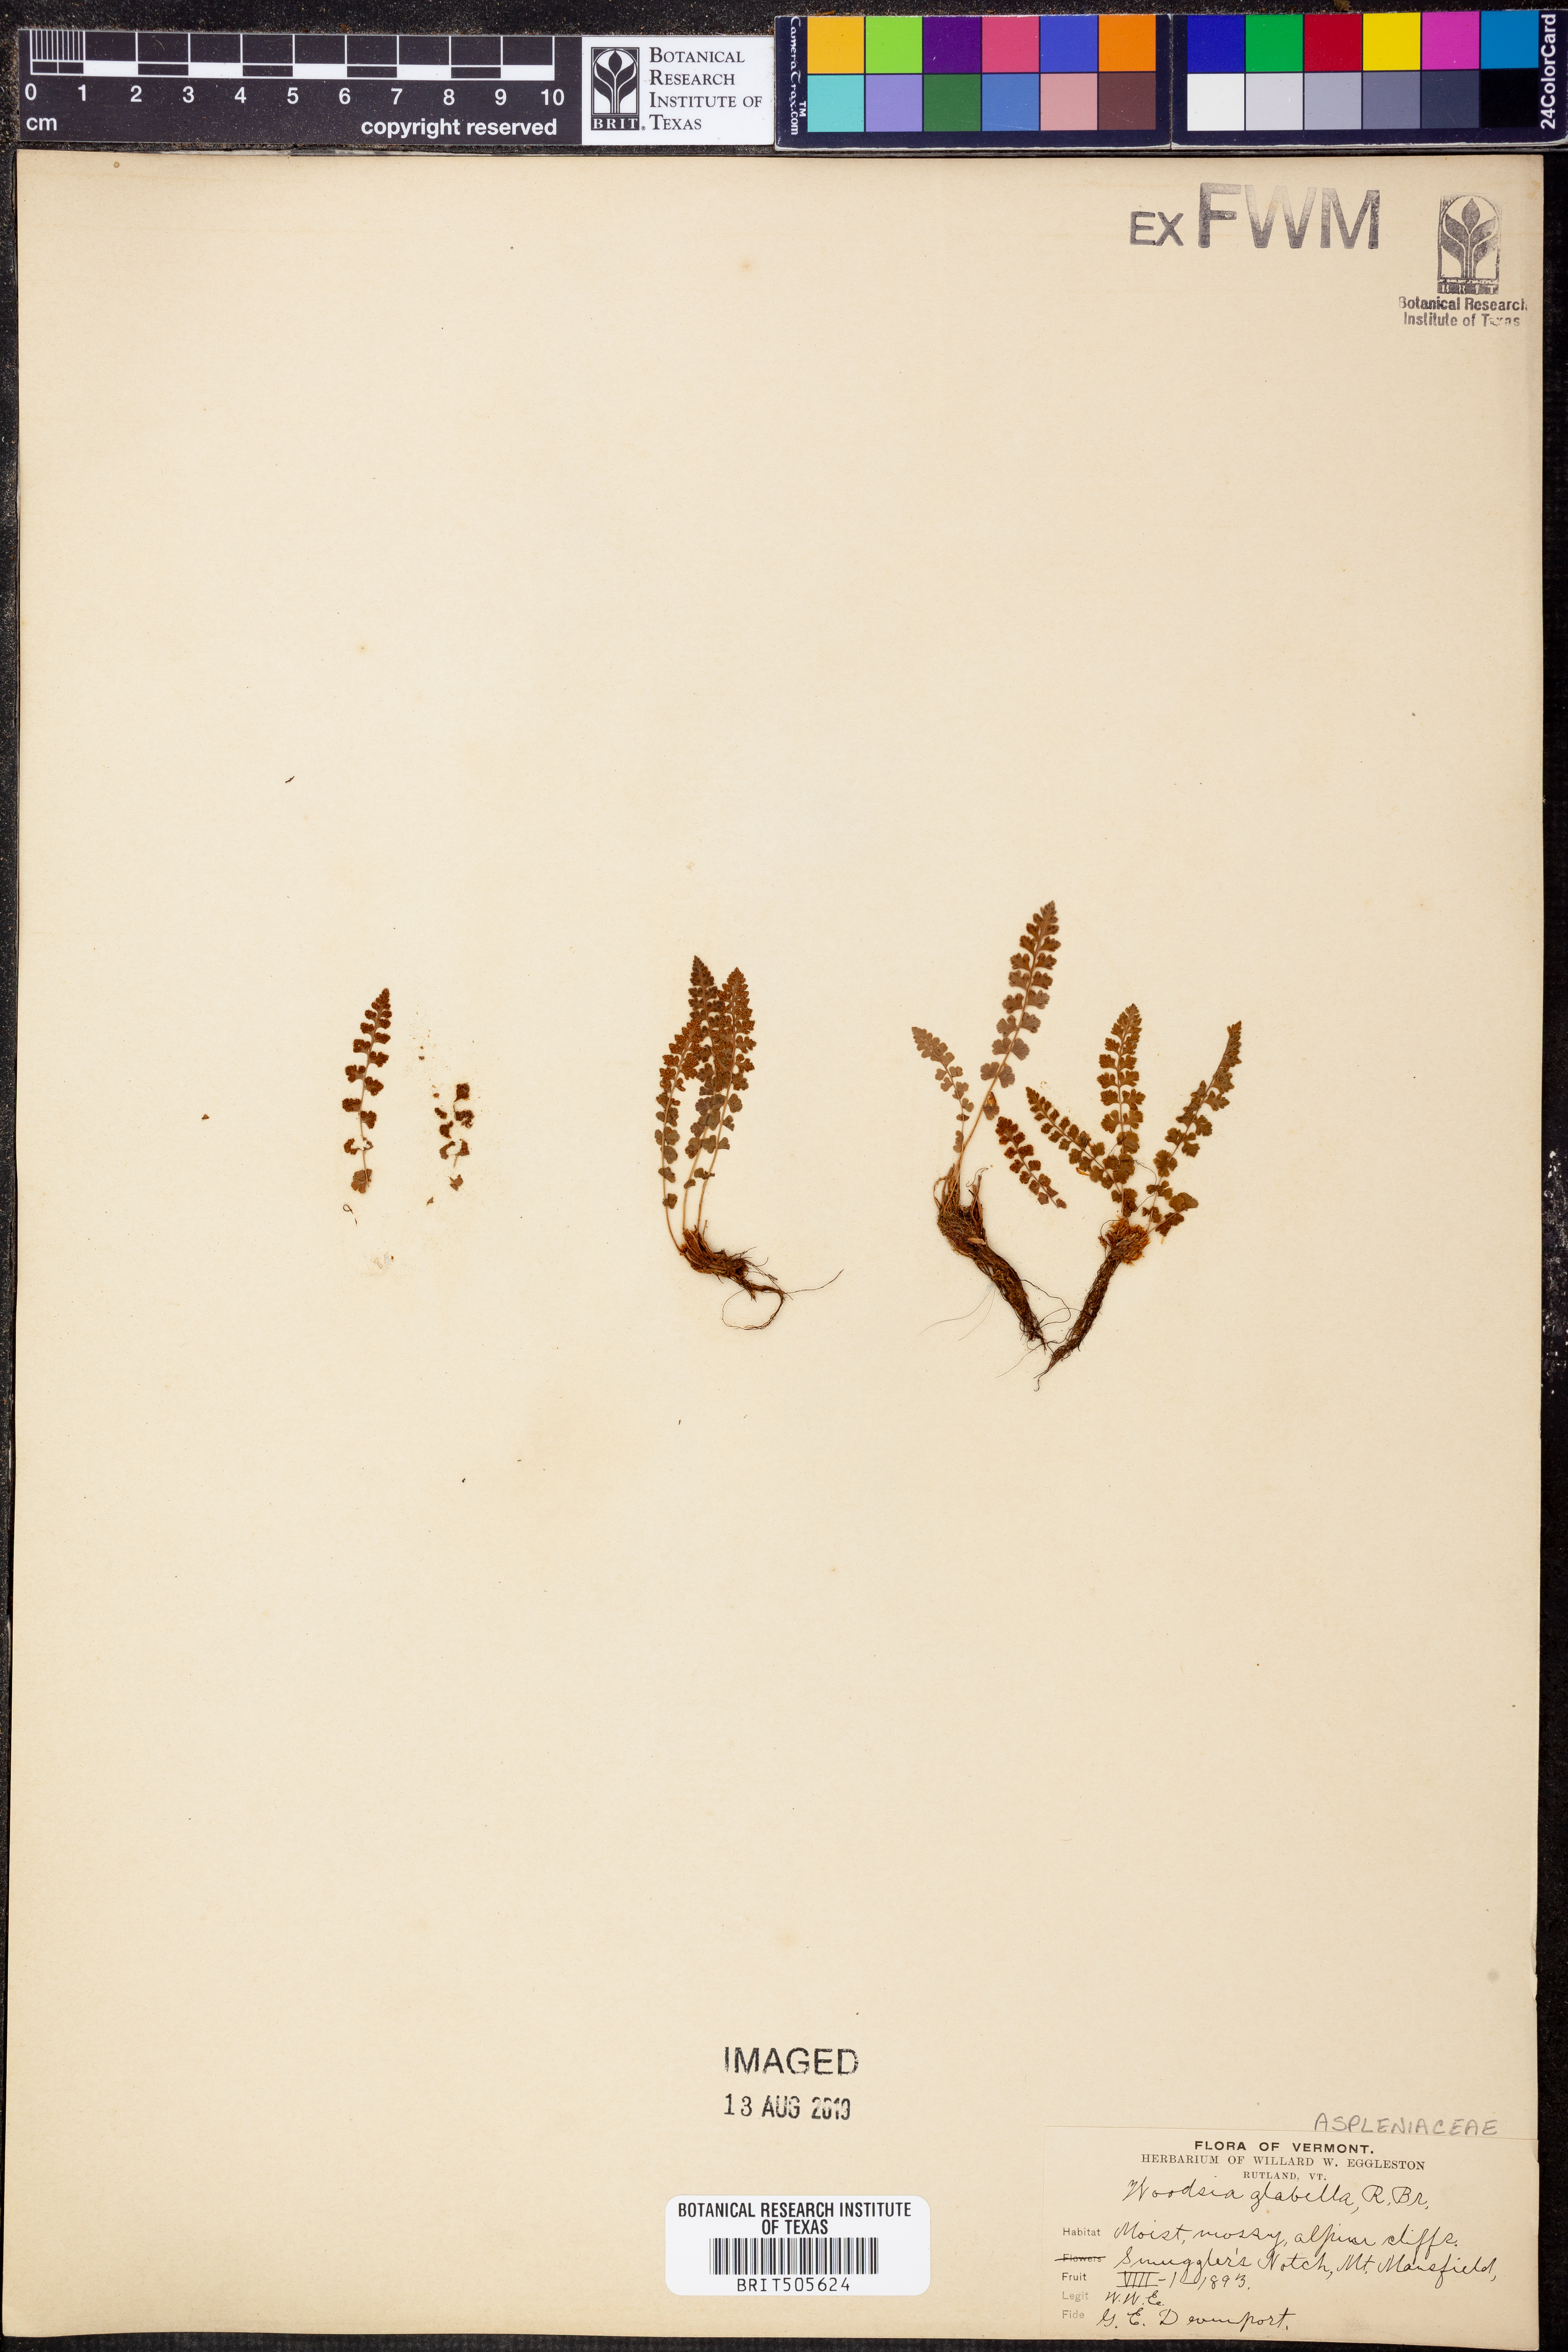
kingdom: Plantae
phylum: Tracheophyta
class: Polypodiopsida
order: Polypodiales
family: Woodsiaceae
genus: Woodsia
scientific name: Woodsia glabella
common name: Smooth woodsia
